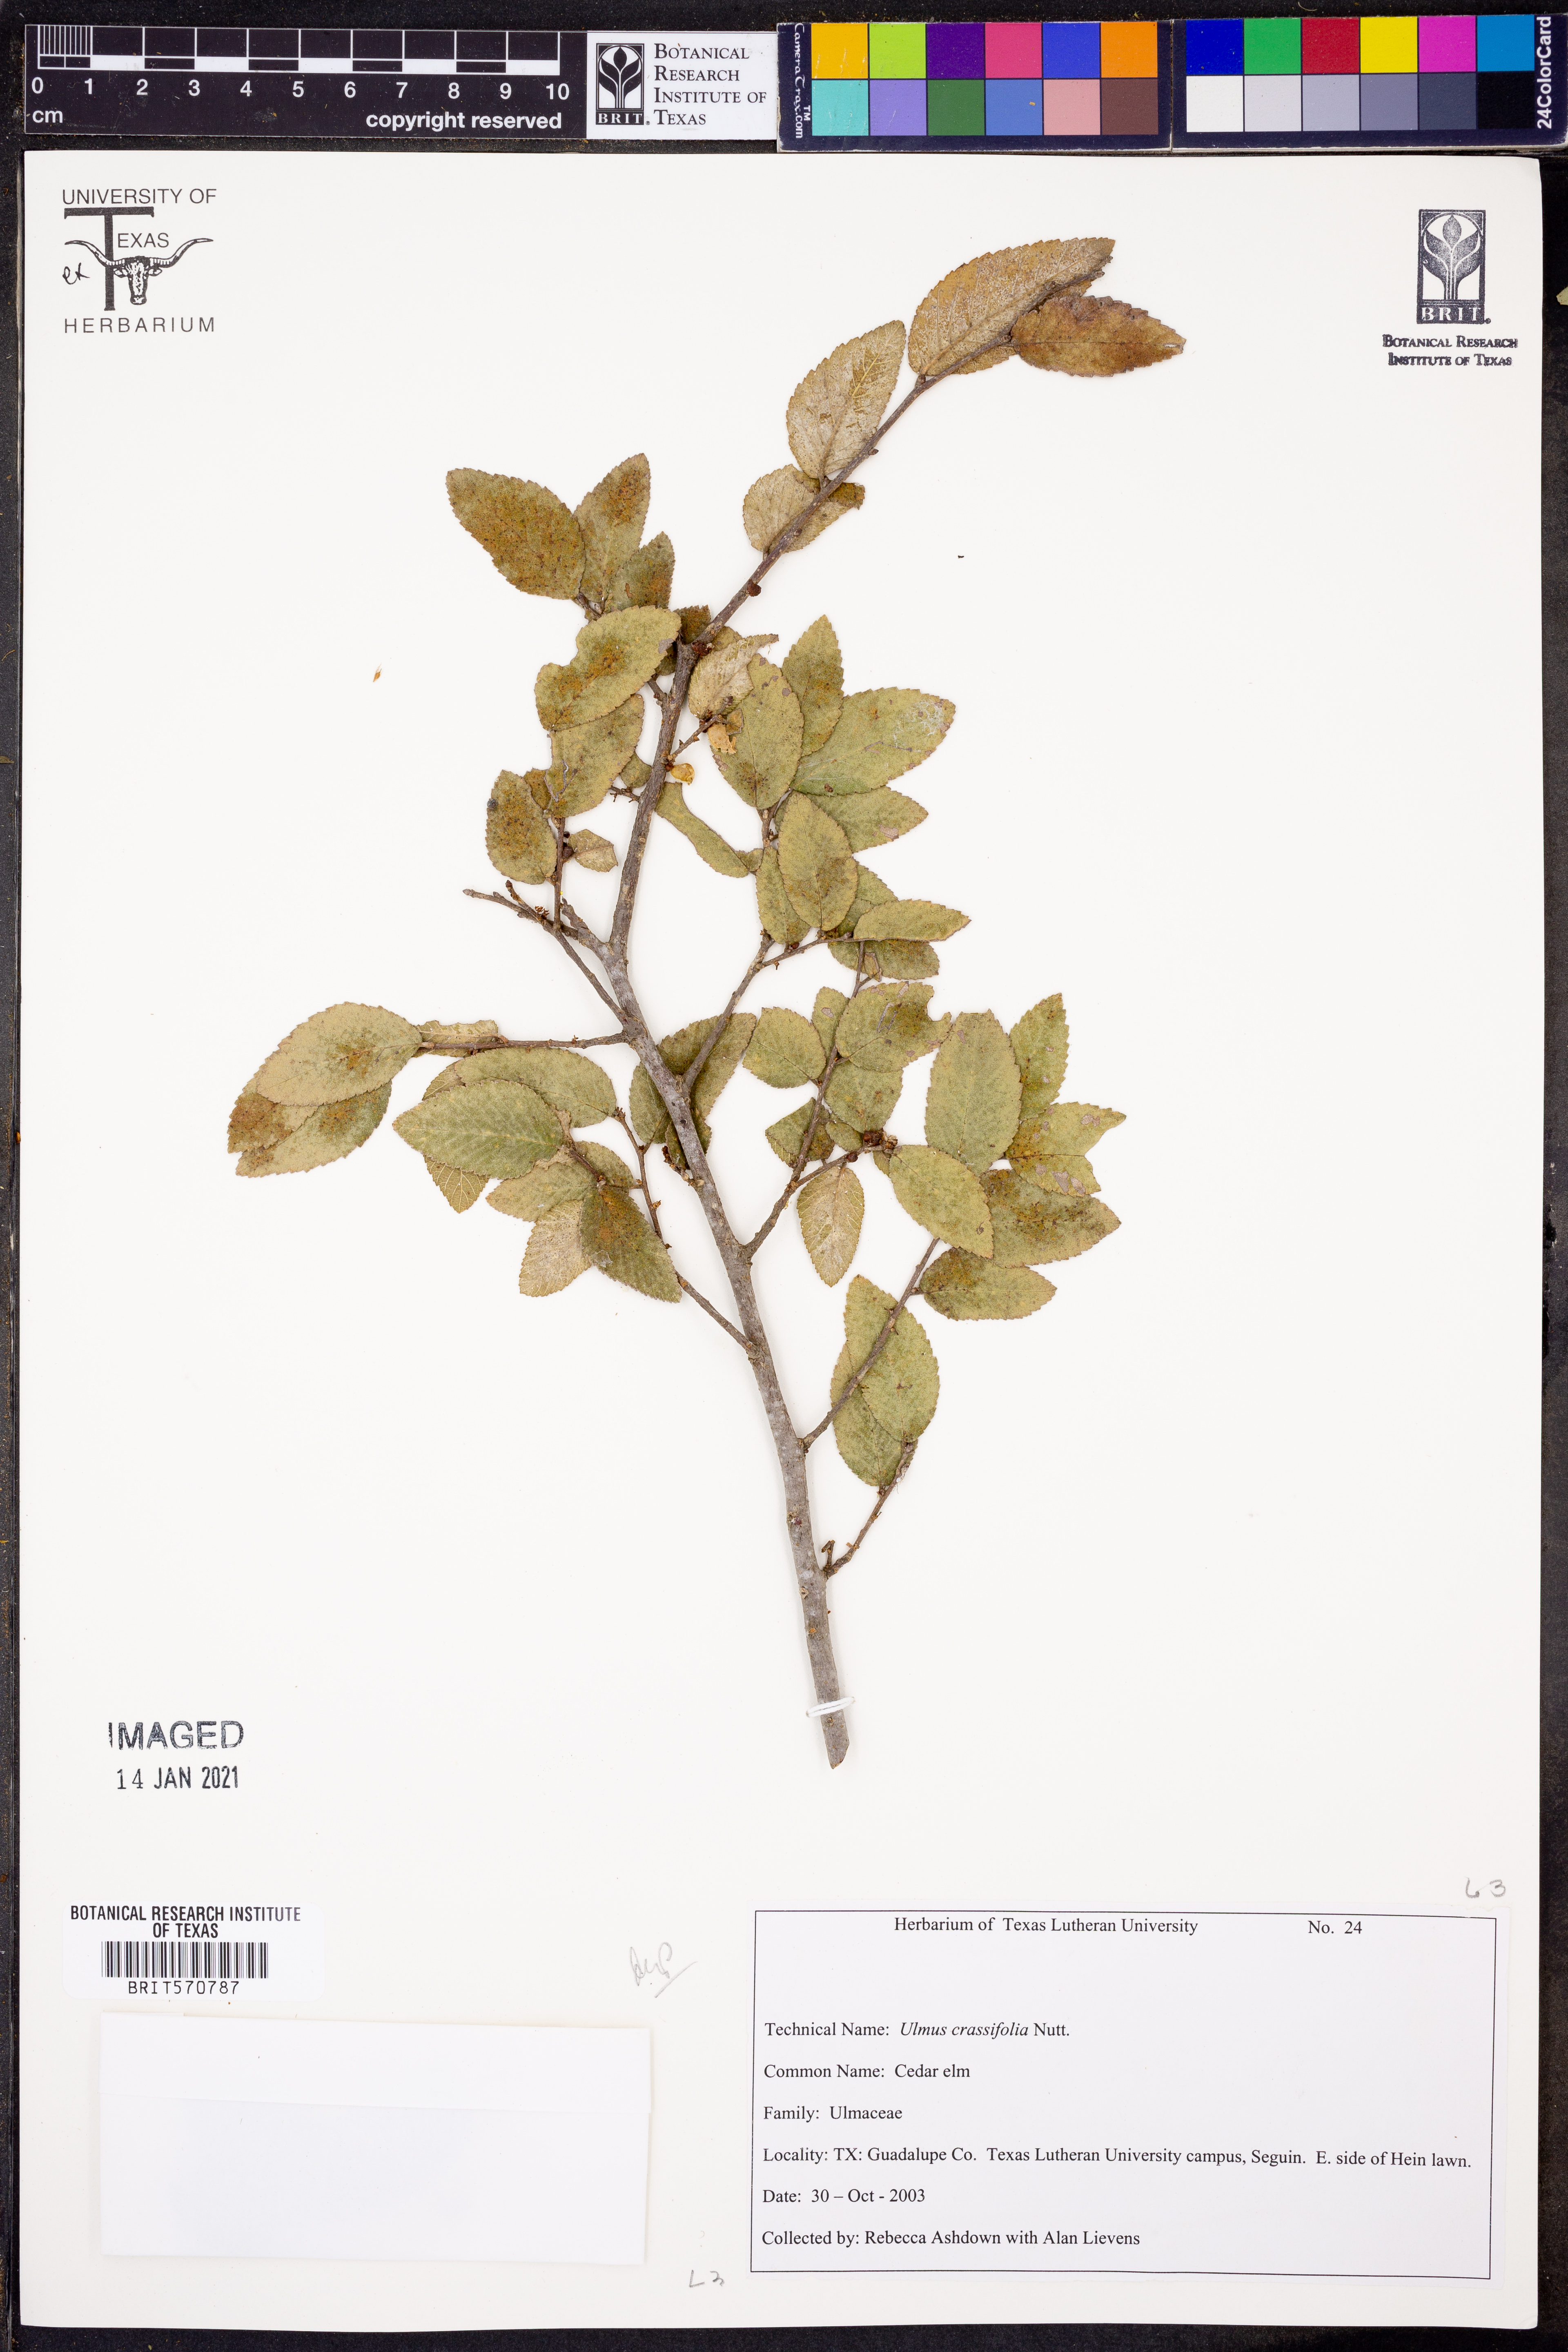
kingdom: Plantae
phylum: Tracheophyta
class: Magnoliopsida
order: Rosales
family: Ulmaceae
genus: Ulmus
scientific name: Ulmus crassifolia
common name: Basket elm
